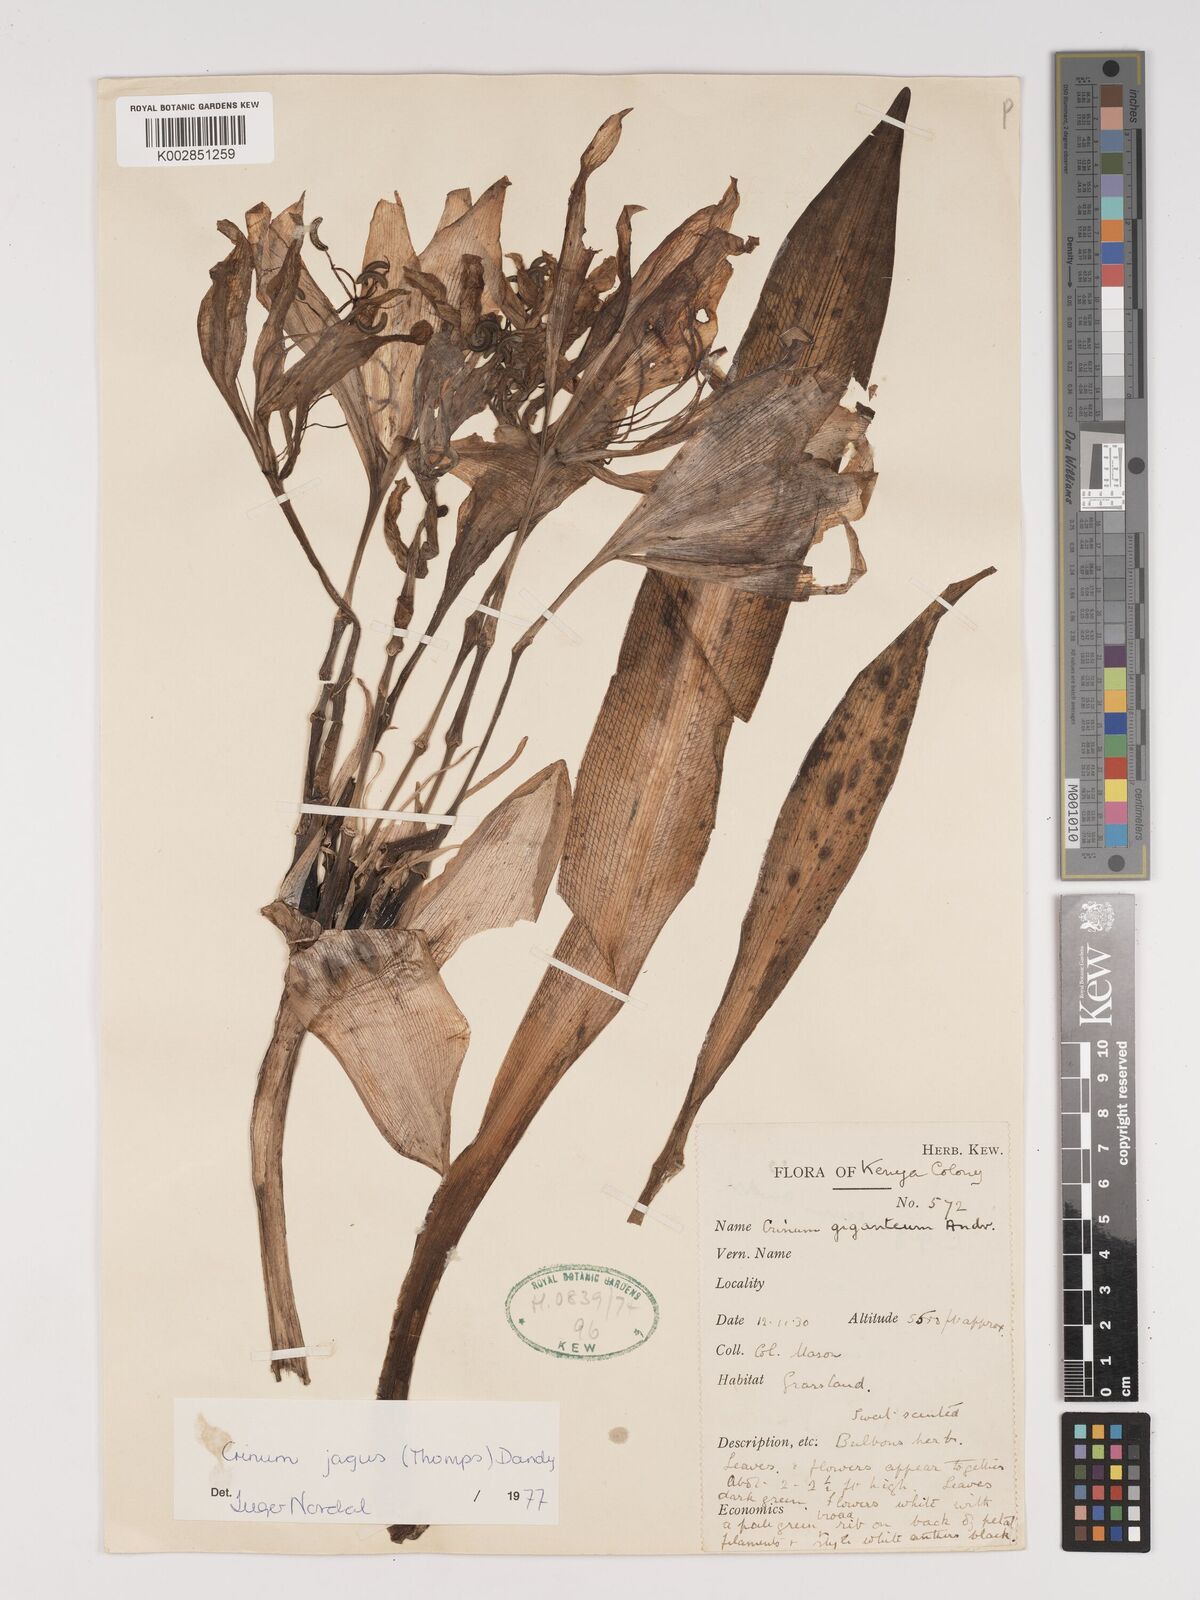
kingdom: Plantae
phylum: Tracheophyta
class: Liliopsida
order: Asparagales
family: Amaryllidaceae
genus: Crinum
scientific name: Crinum jagus
